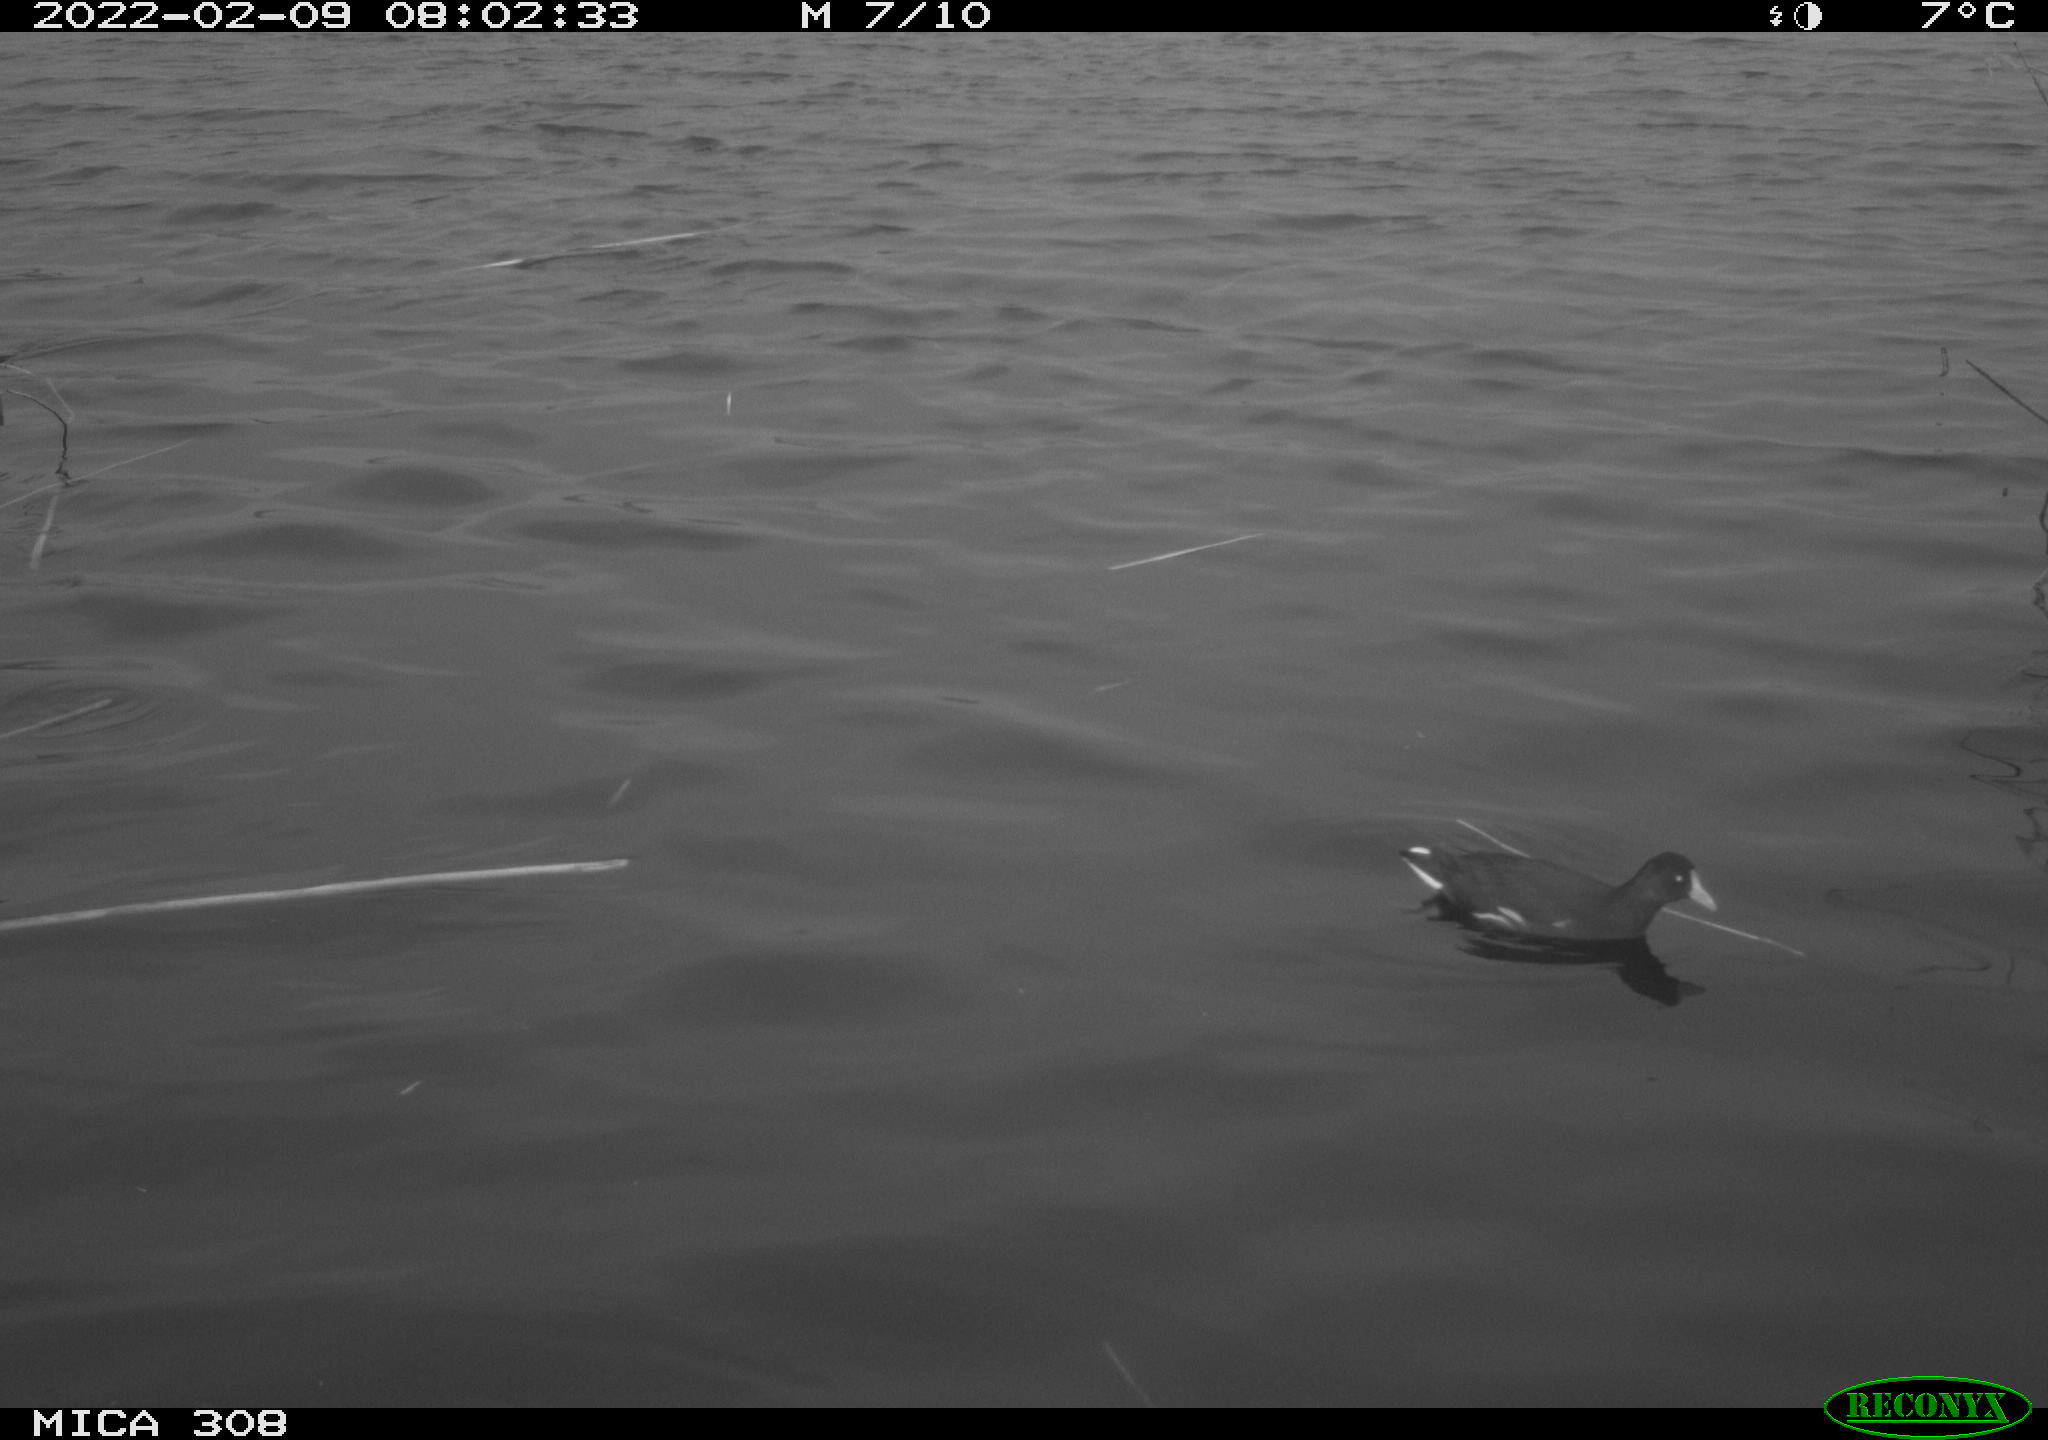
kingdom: Animalia
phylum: Chordata
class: Aves
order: Gruiformes
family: Rallidae
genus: Gallinula
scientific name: Gallinula chloropus
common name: Common moorhen
